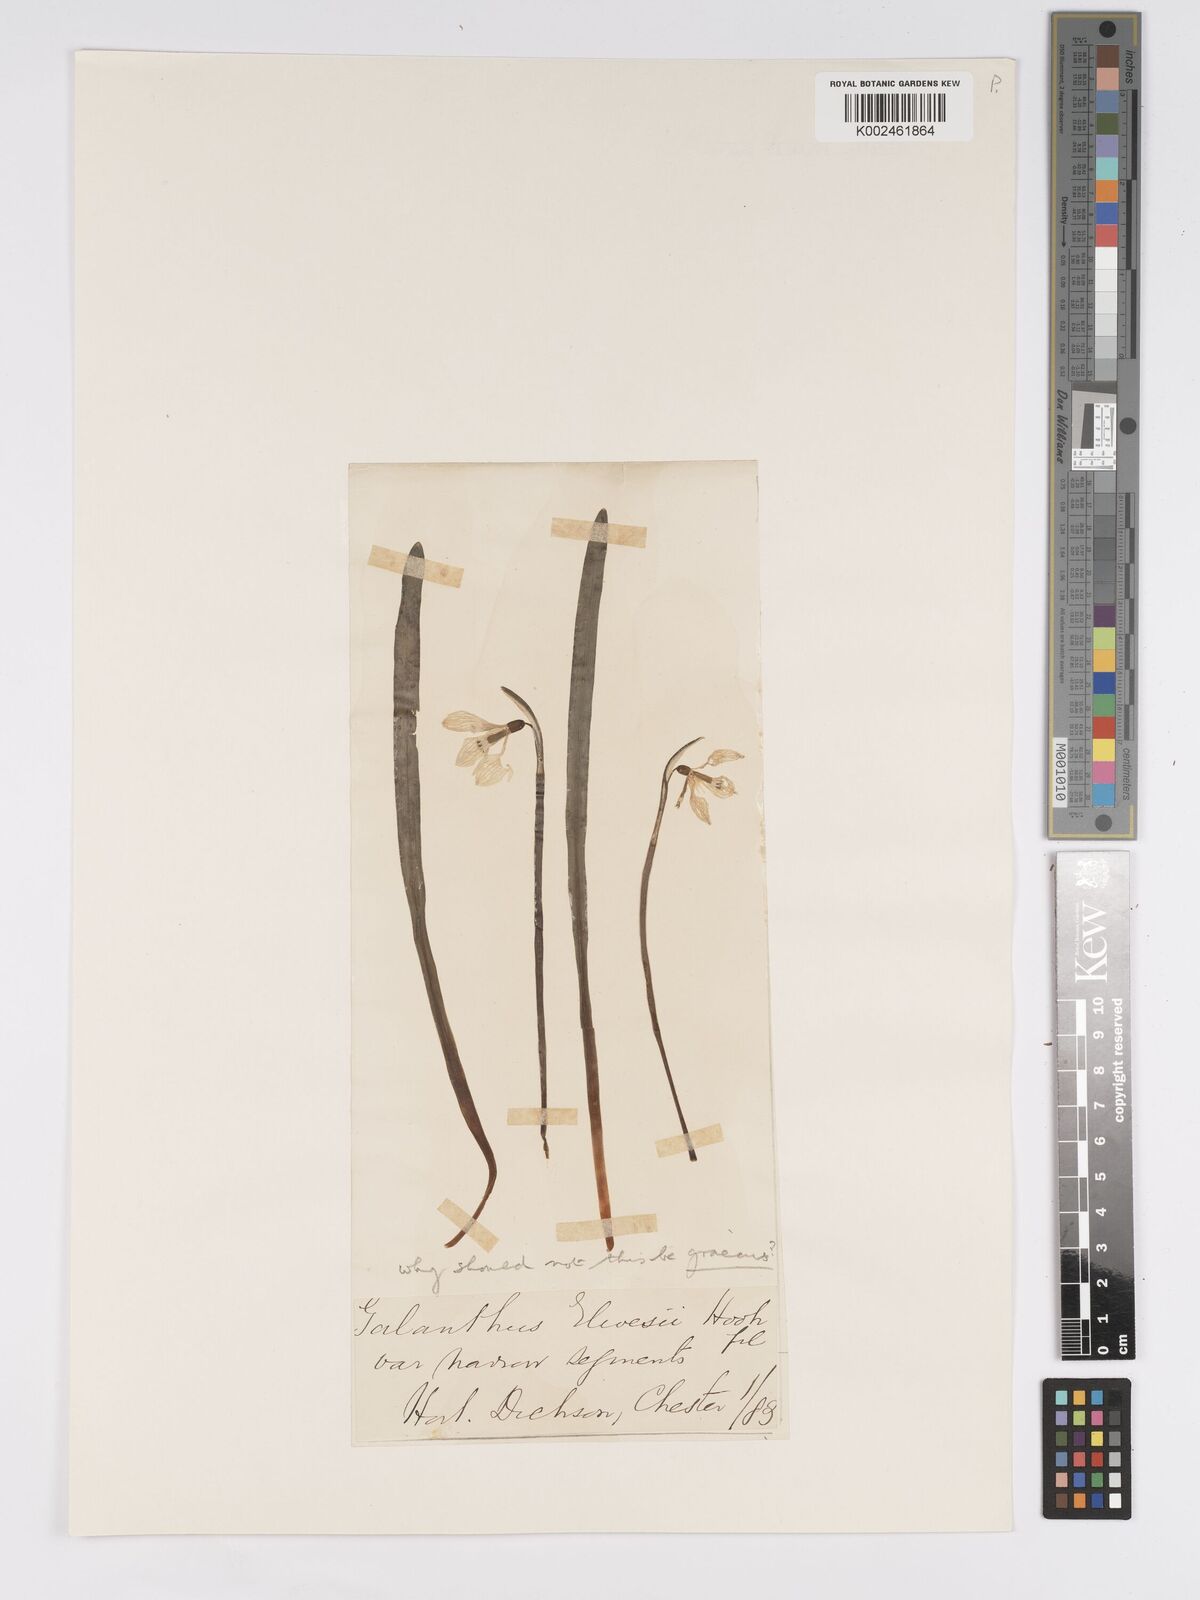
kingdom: Plantae
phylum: Tracheophyta
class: Liliopsida
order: Asparagales
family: Amaryllidaceae
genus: Galanthus
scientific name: Galanthus elwesii
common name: Greater snowdrop
